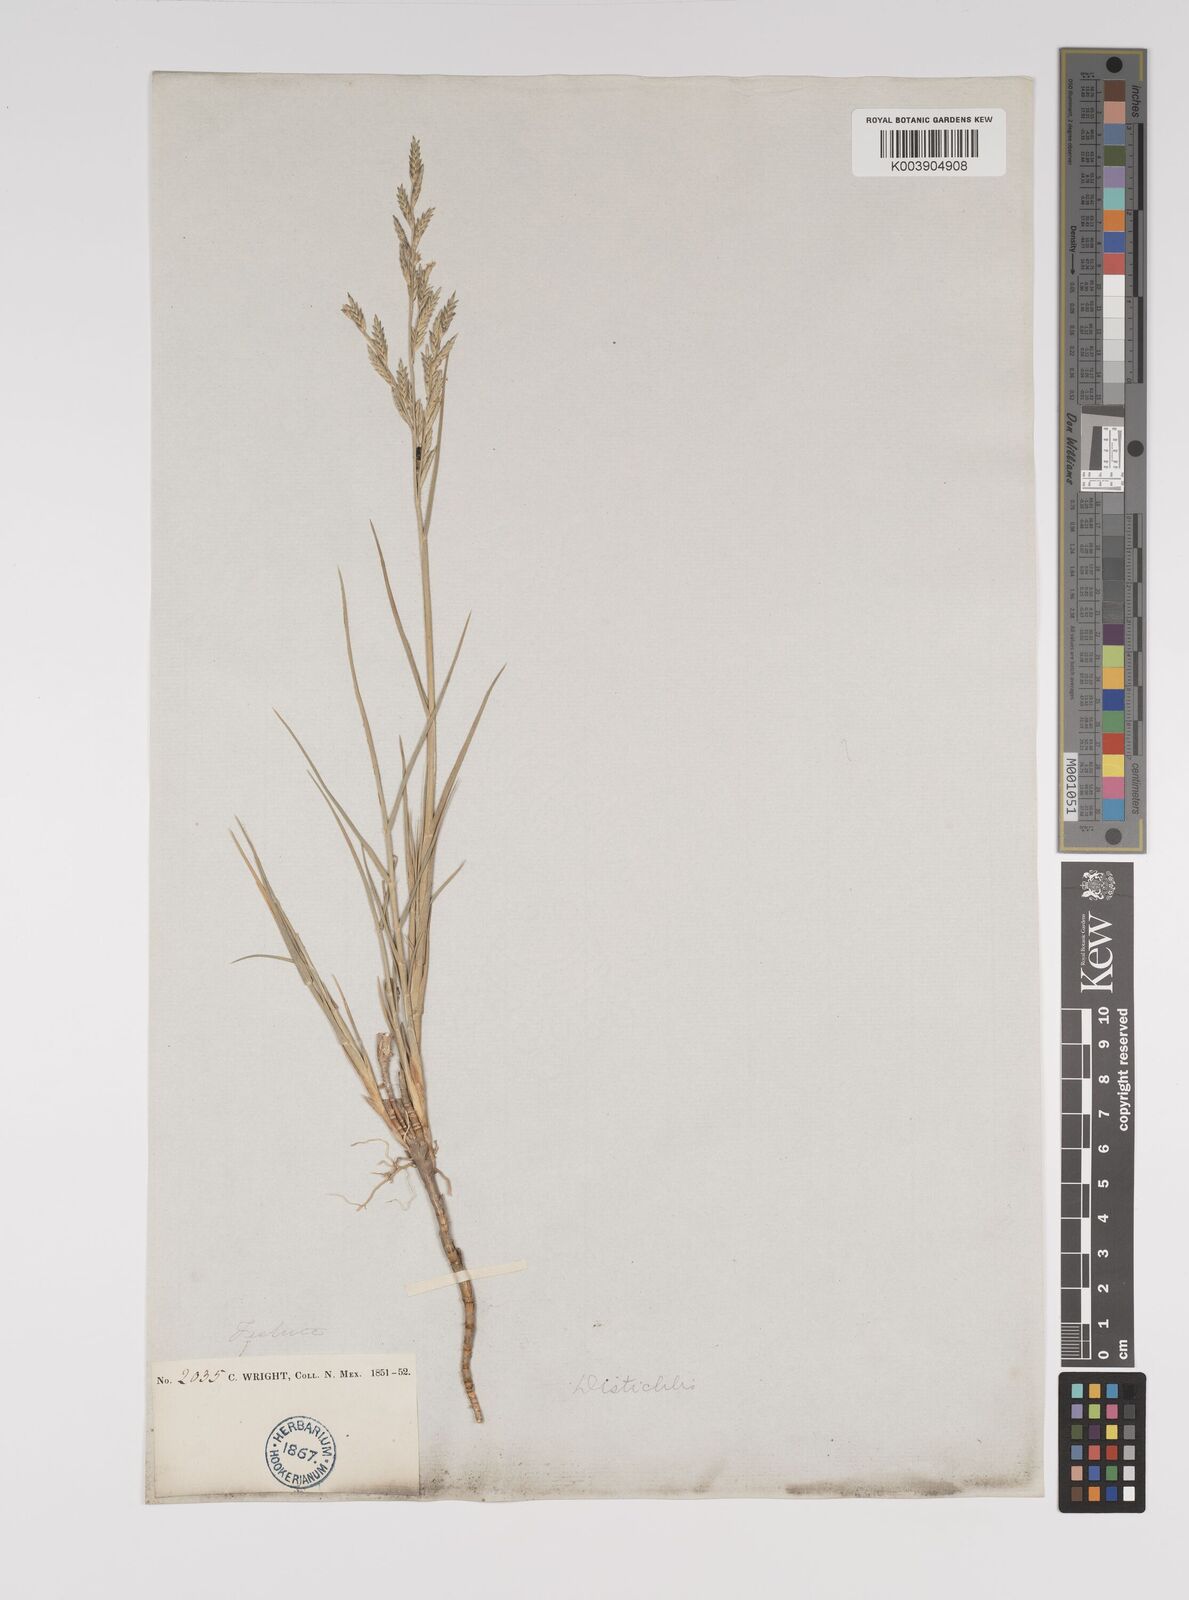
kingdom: Plantae
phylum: Tracheophyta
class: Liliopsida
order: Poales
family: Poaceae
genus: Distichlis
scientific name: Distichlis spicata
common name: Saltgrass
